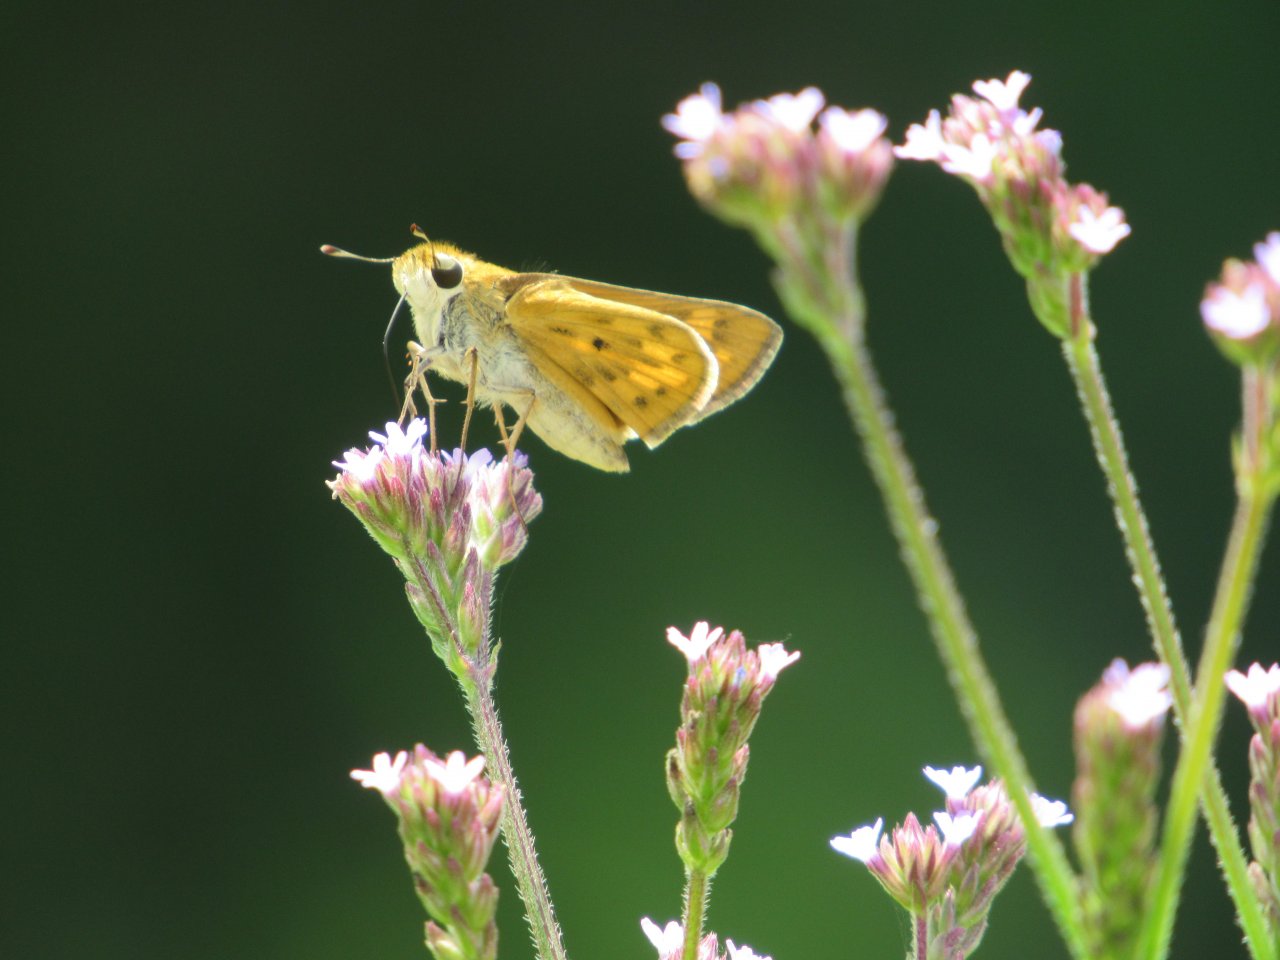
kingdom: Animalia
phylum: Arthropoda
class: Insecta
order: Lepidoptera
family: Hesperiidae
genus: Hylephila
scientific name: Hylephila phyleus
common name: Fiery Skipper
